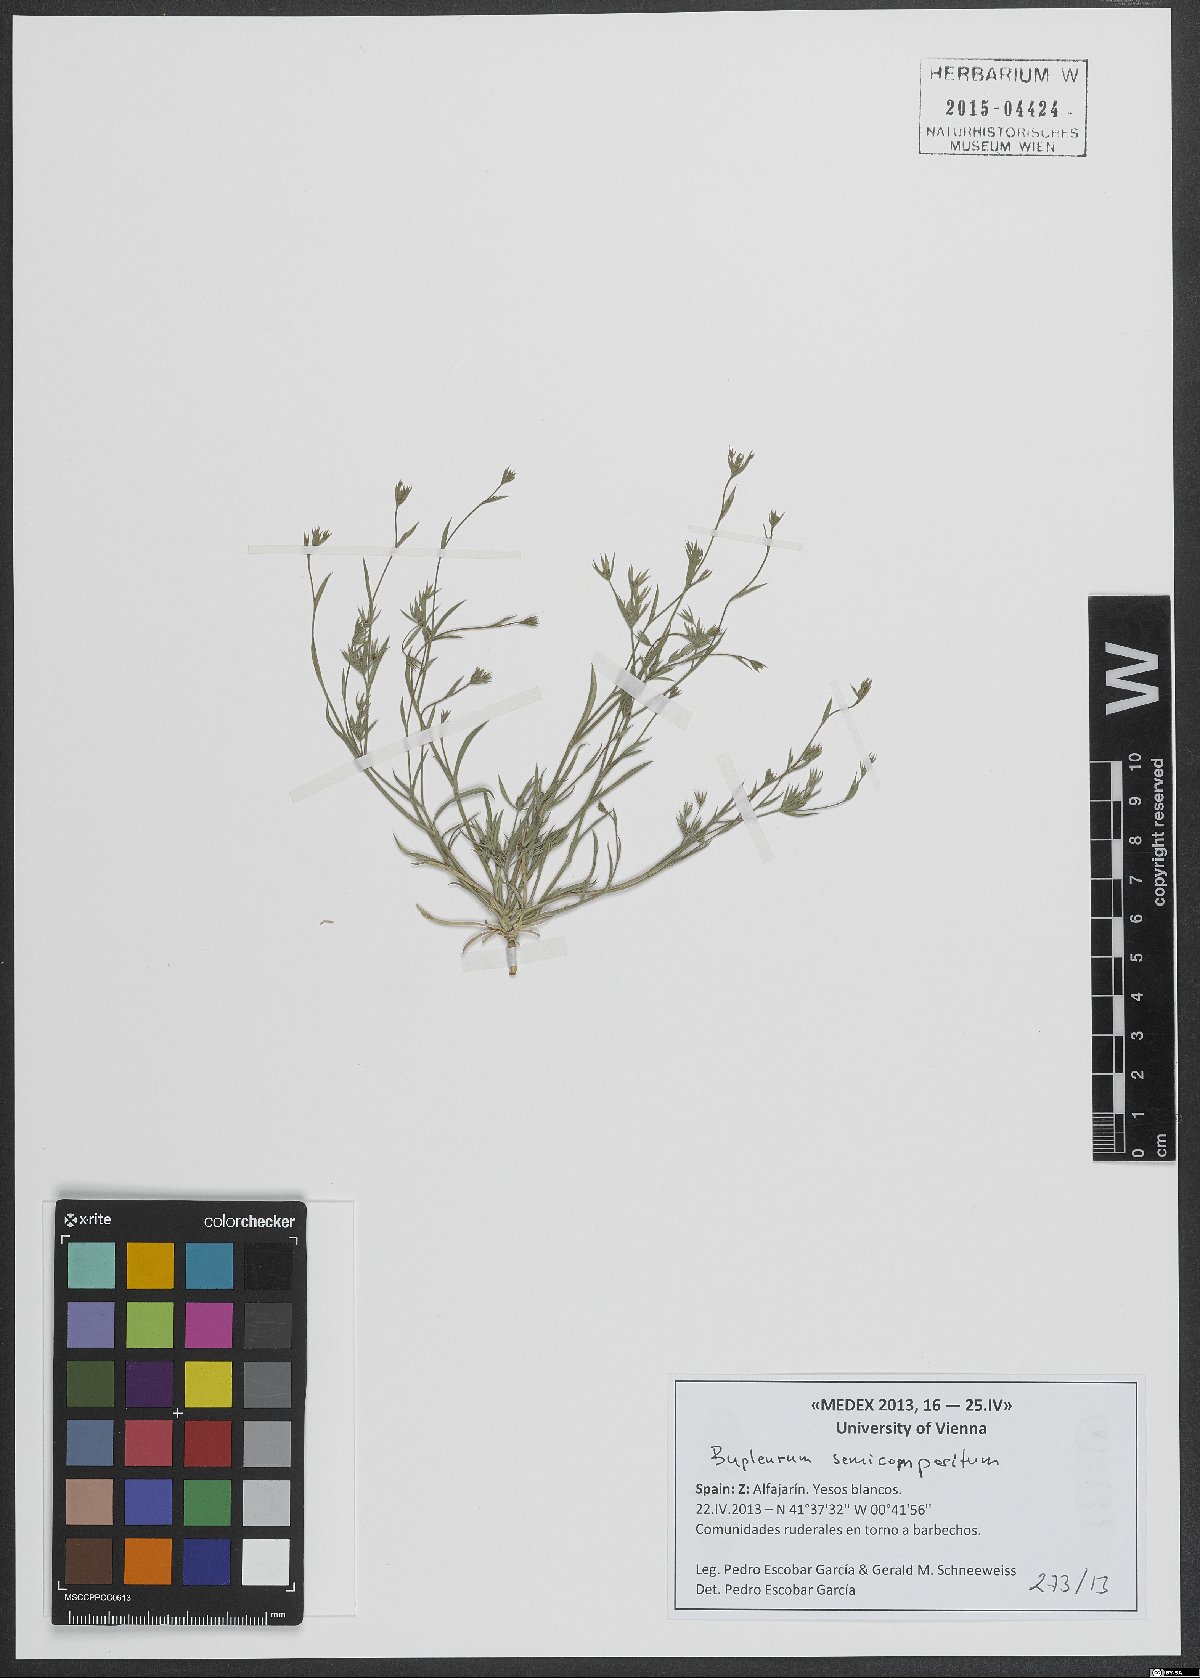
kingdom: Plantae
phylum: Tracheophyta
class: Magnoliopsida
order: Apiales
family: Apiaceae
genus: Bupleurum
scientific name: Bupleurum semicompositum
